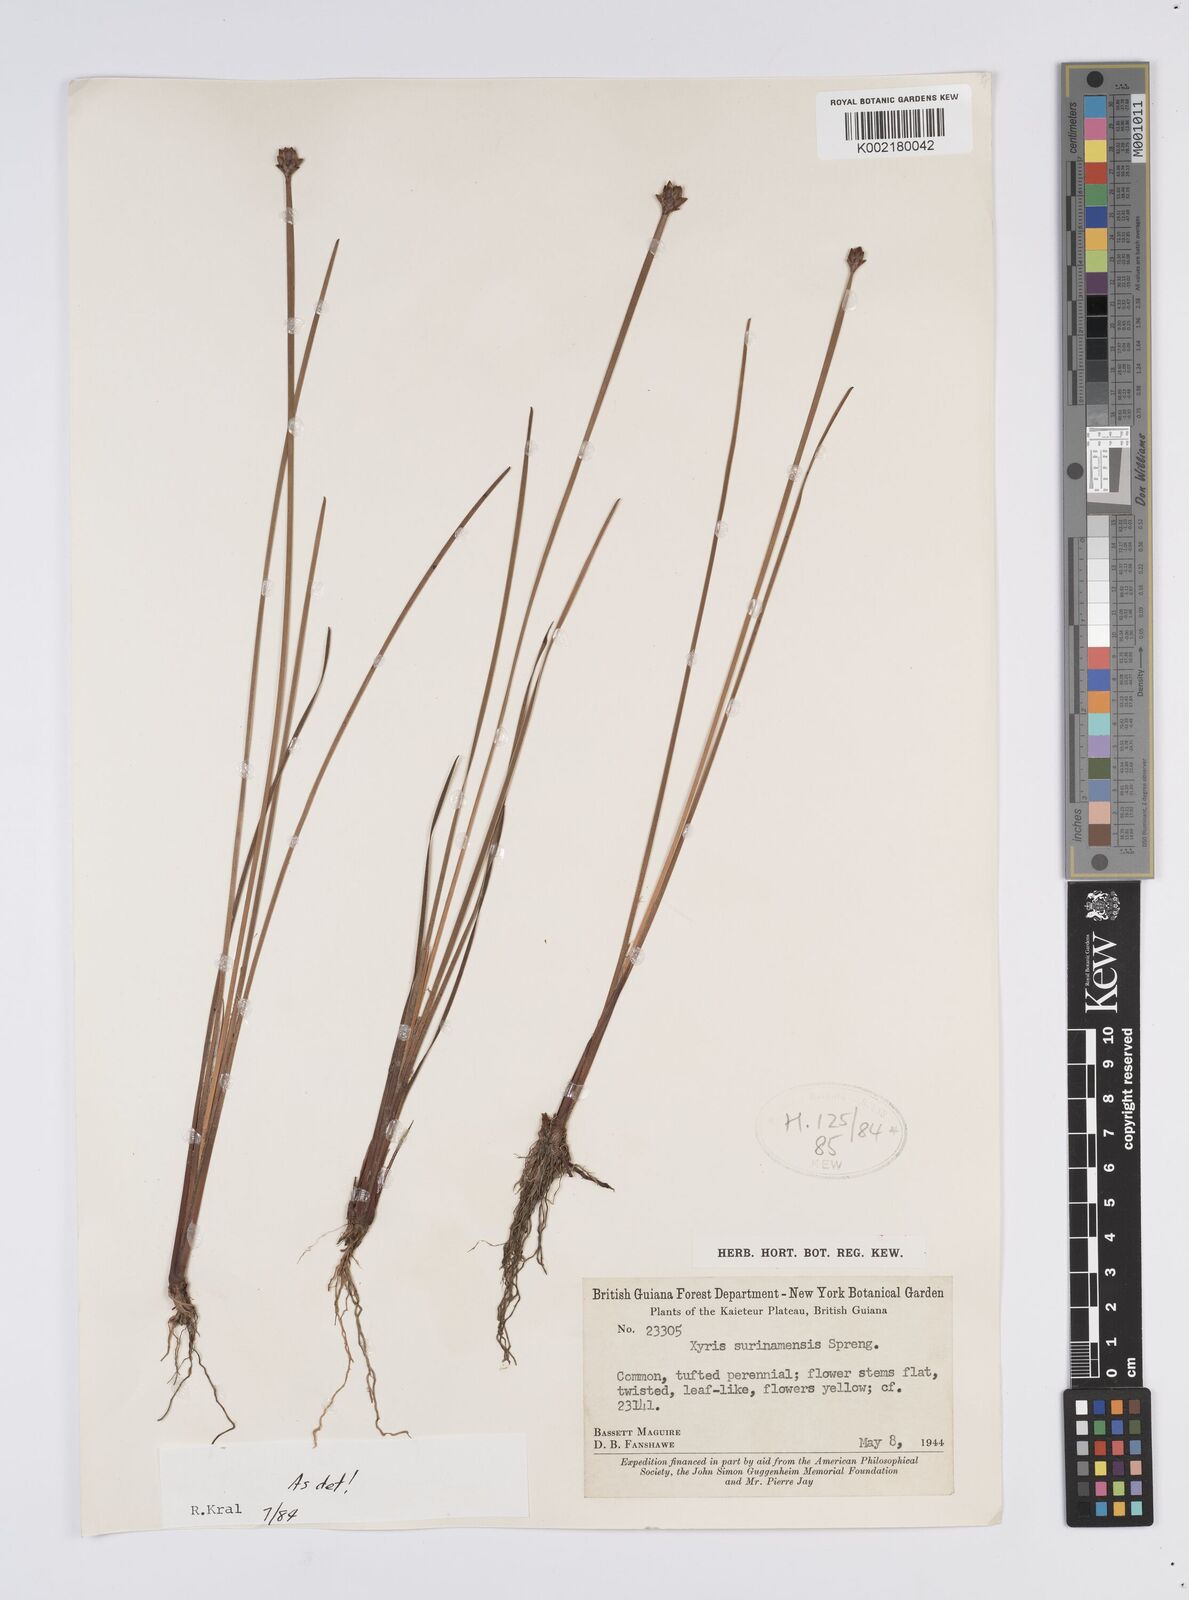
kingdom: Plantae
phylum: Tracheophyta
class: Liliopsida
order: Poales
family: Xyridaceae
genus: Xyris
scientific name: Xyris surinamensis
